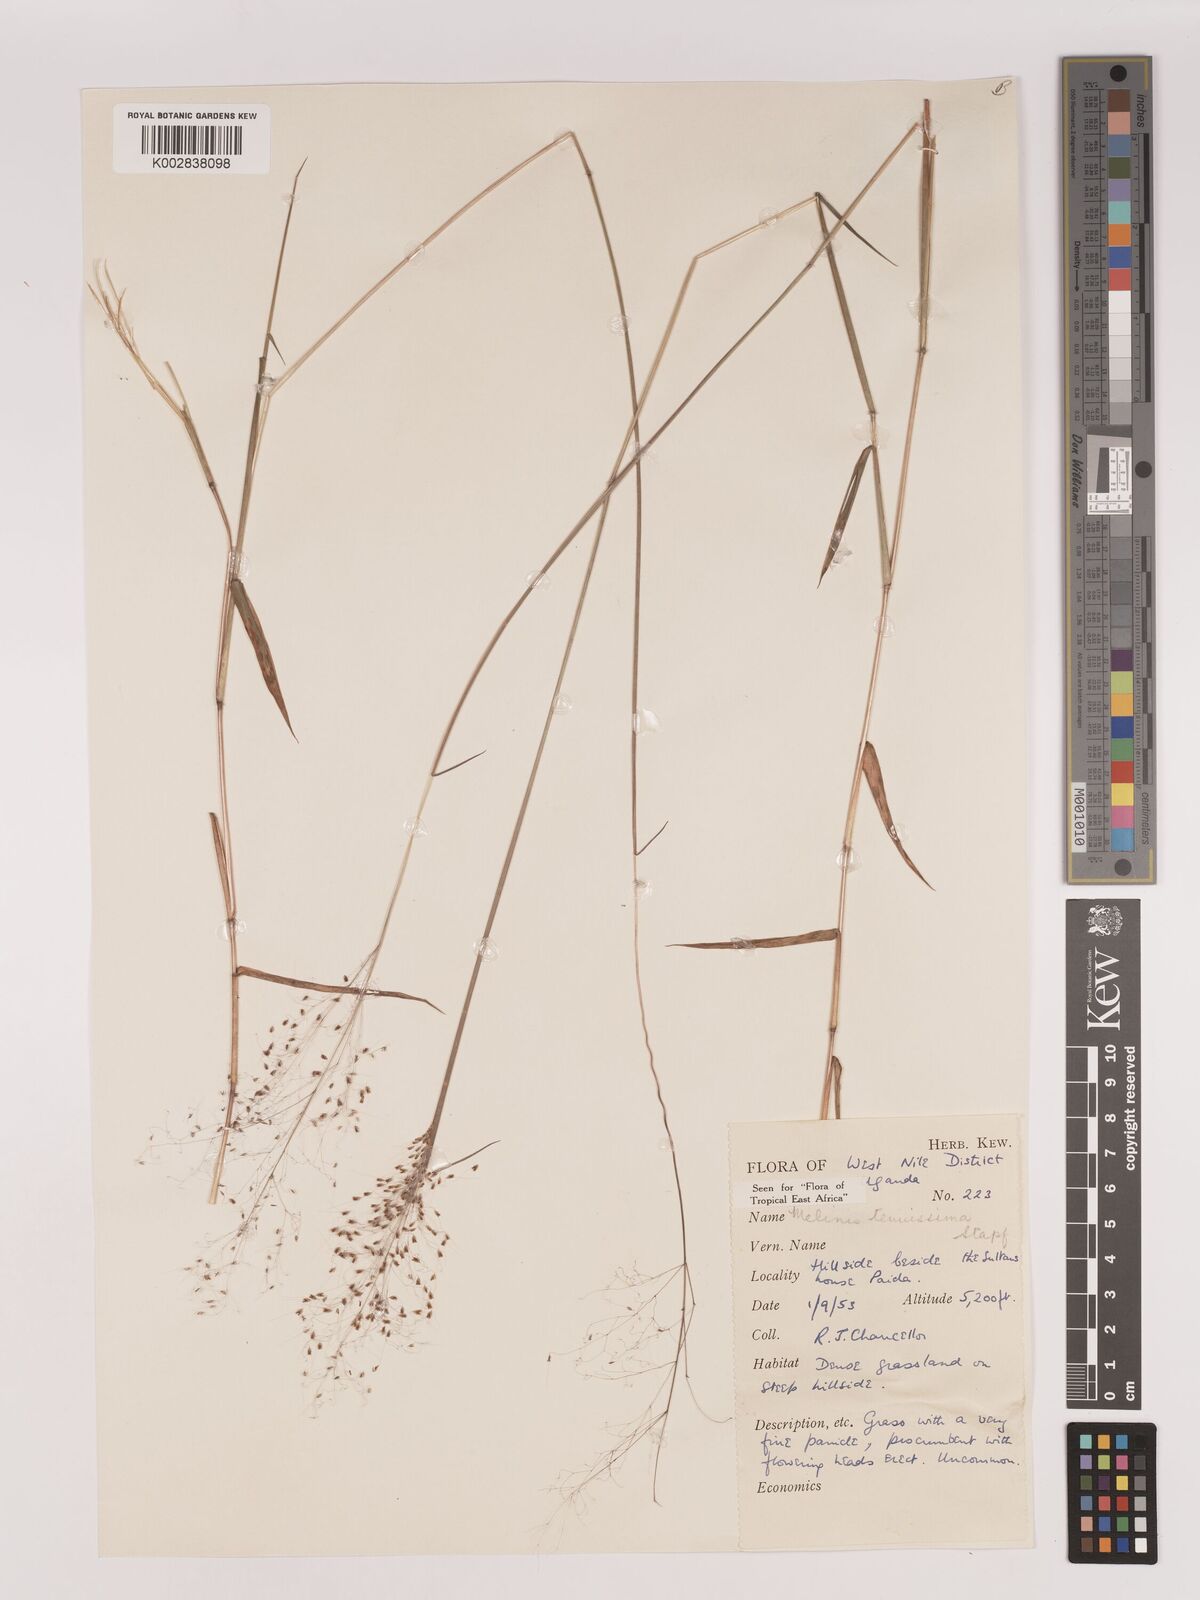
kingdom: Plantae
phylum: Tracheophyta
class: Liliopsida
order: Poales
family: Poaceae
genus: Melinis
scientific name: Melinis tenuissima
